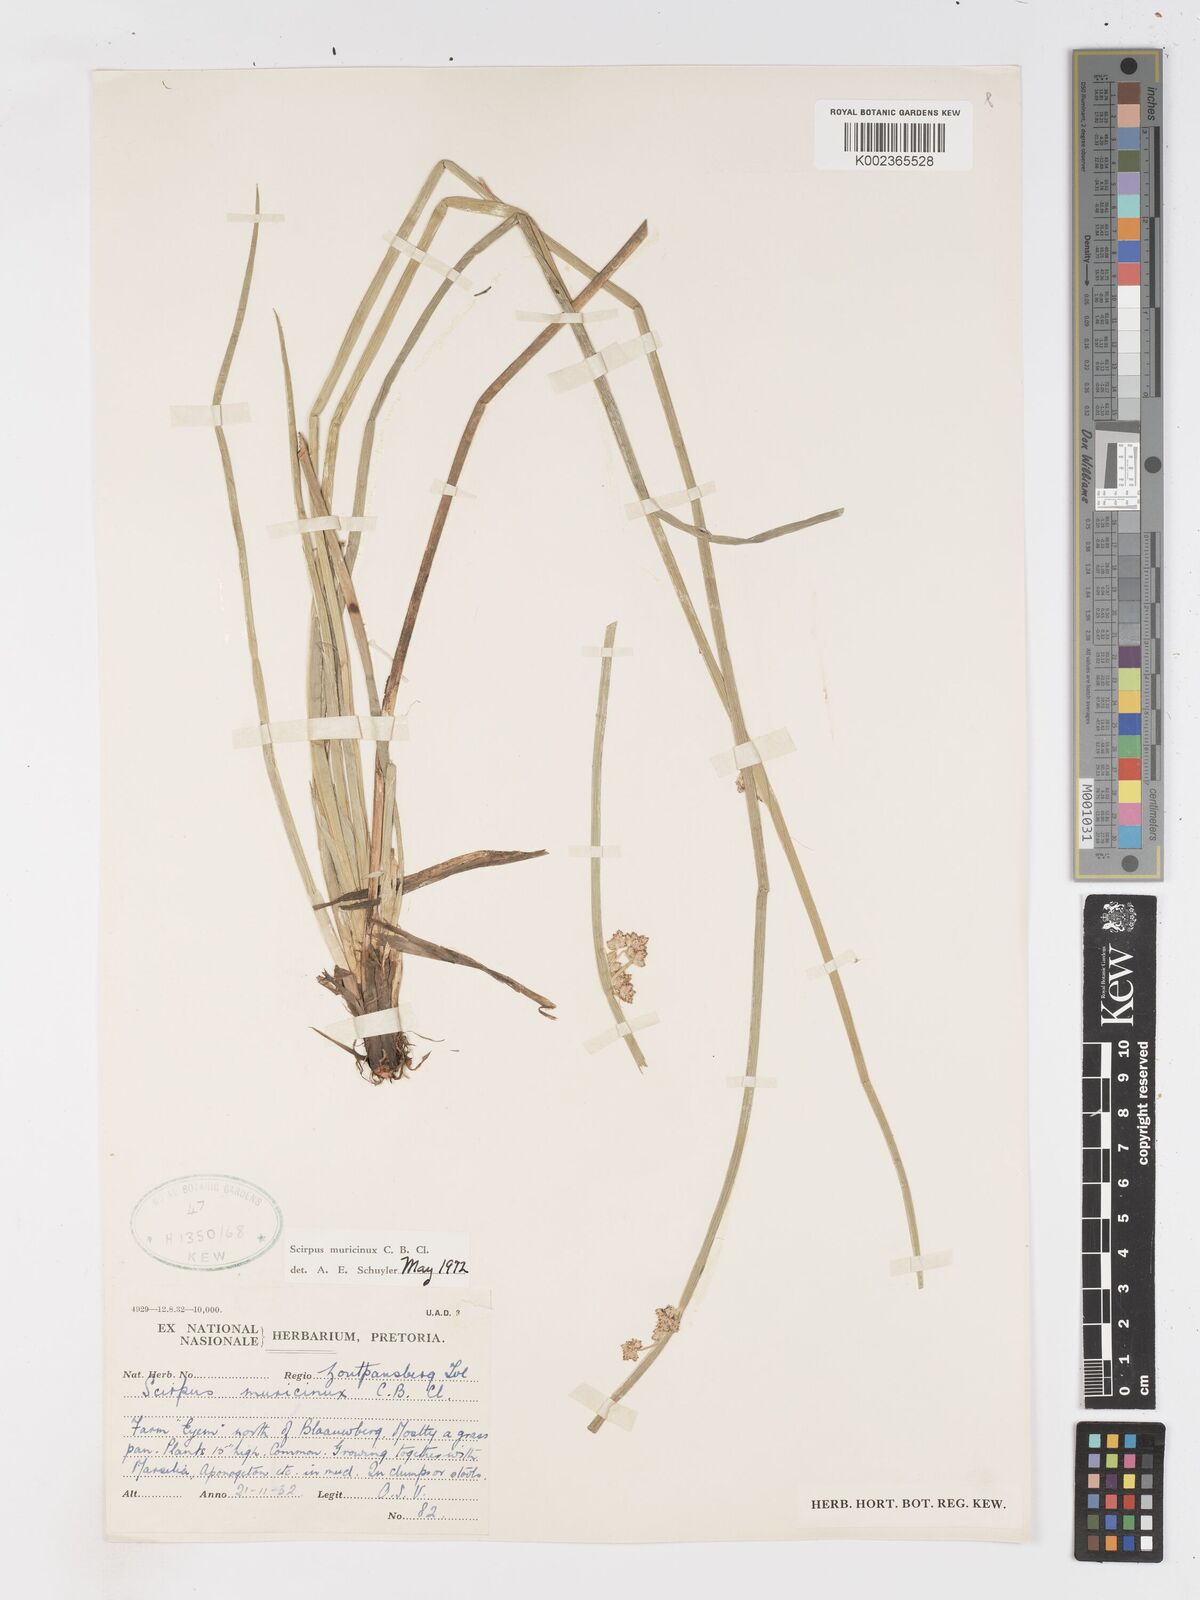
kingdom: Plantae
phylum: Tracheophyta
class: Liliopsida
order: Poales
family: Cyperaceae
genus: Schoenoplectiella
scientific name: Schoenoplectiella muricinux
